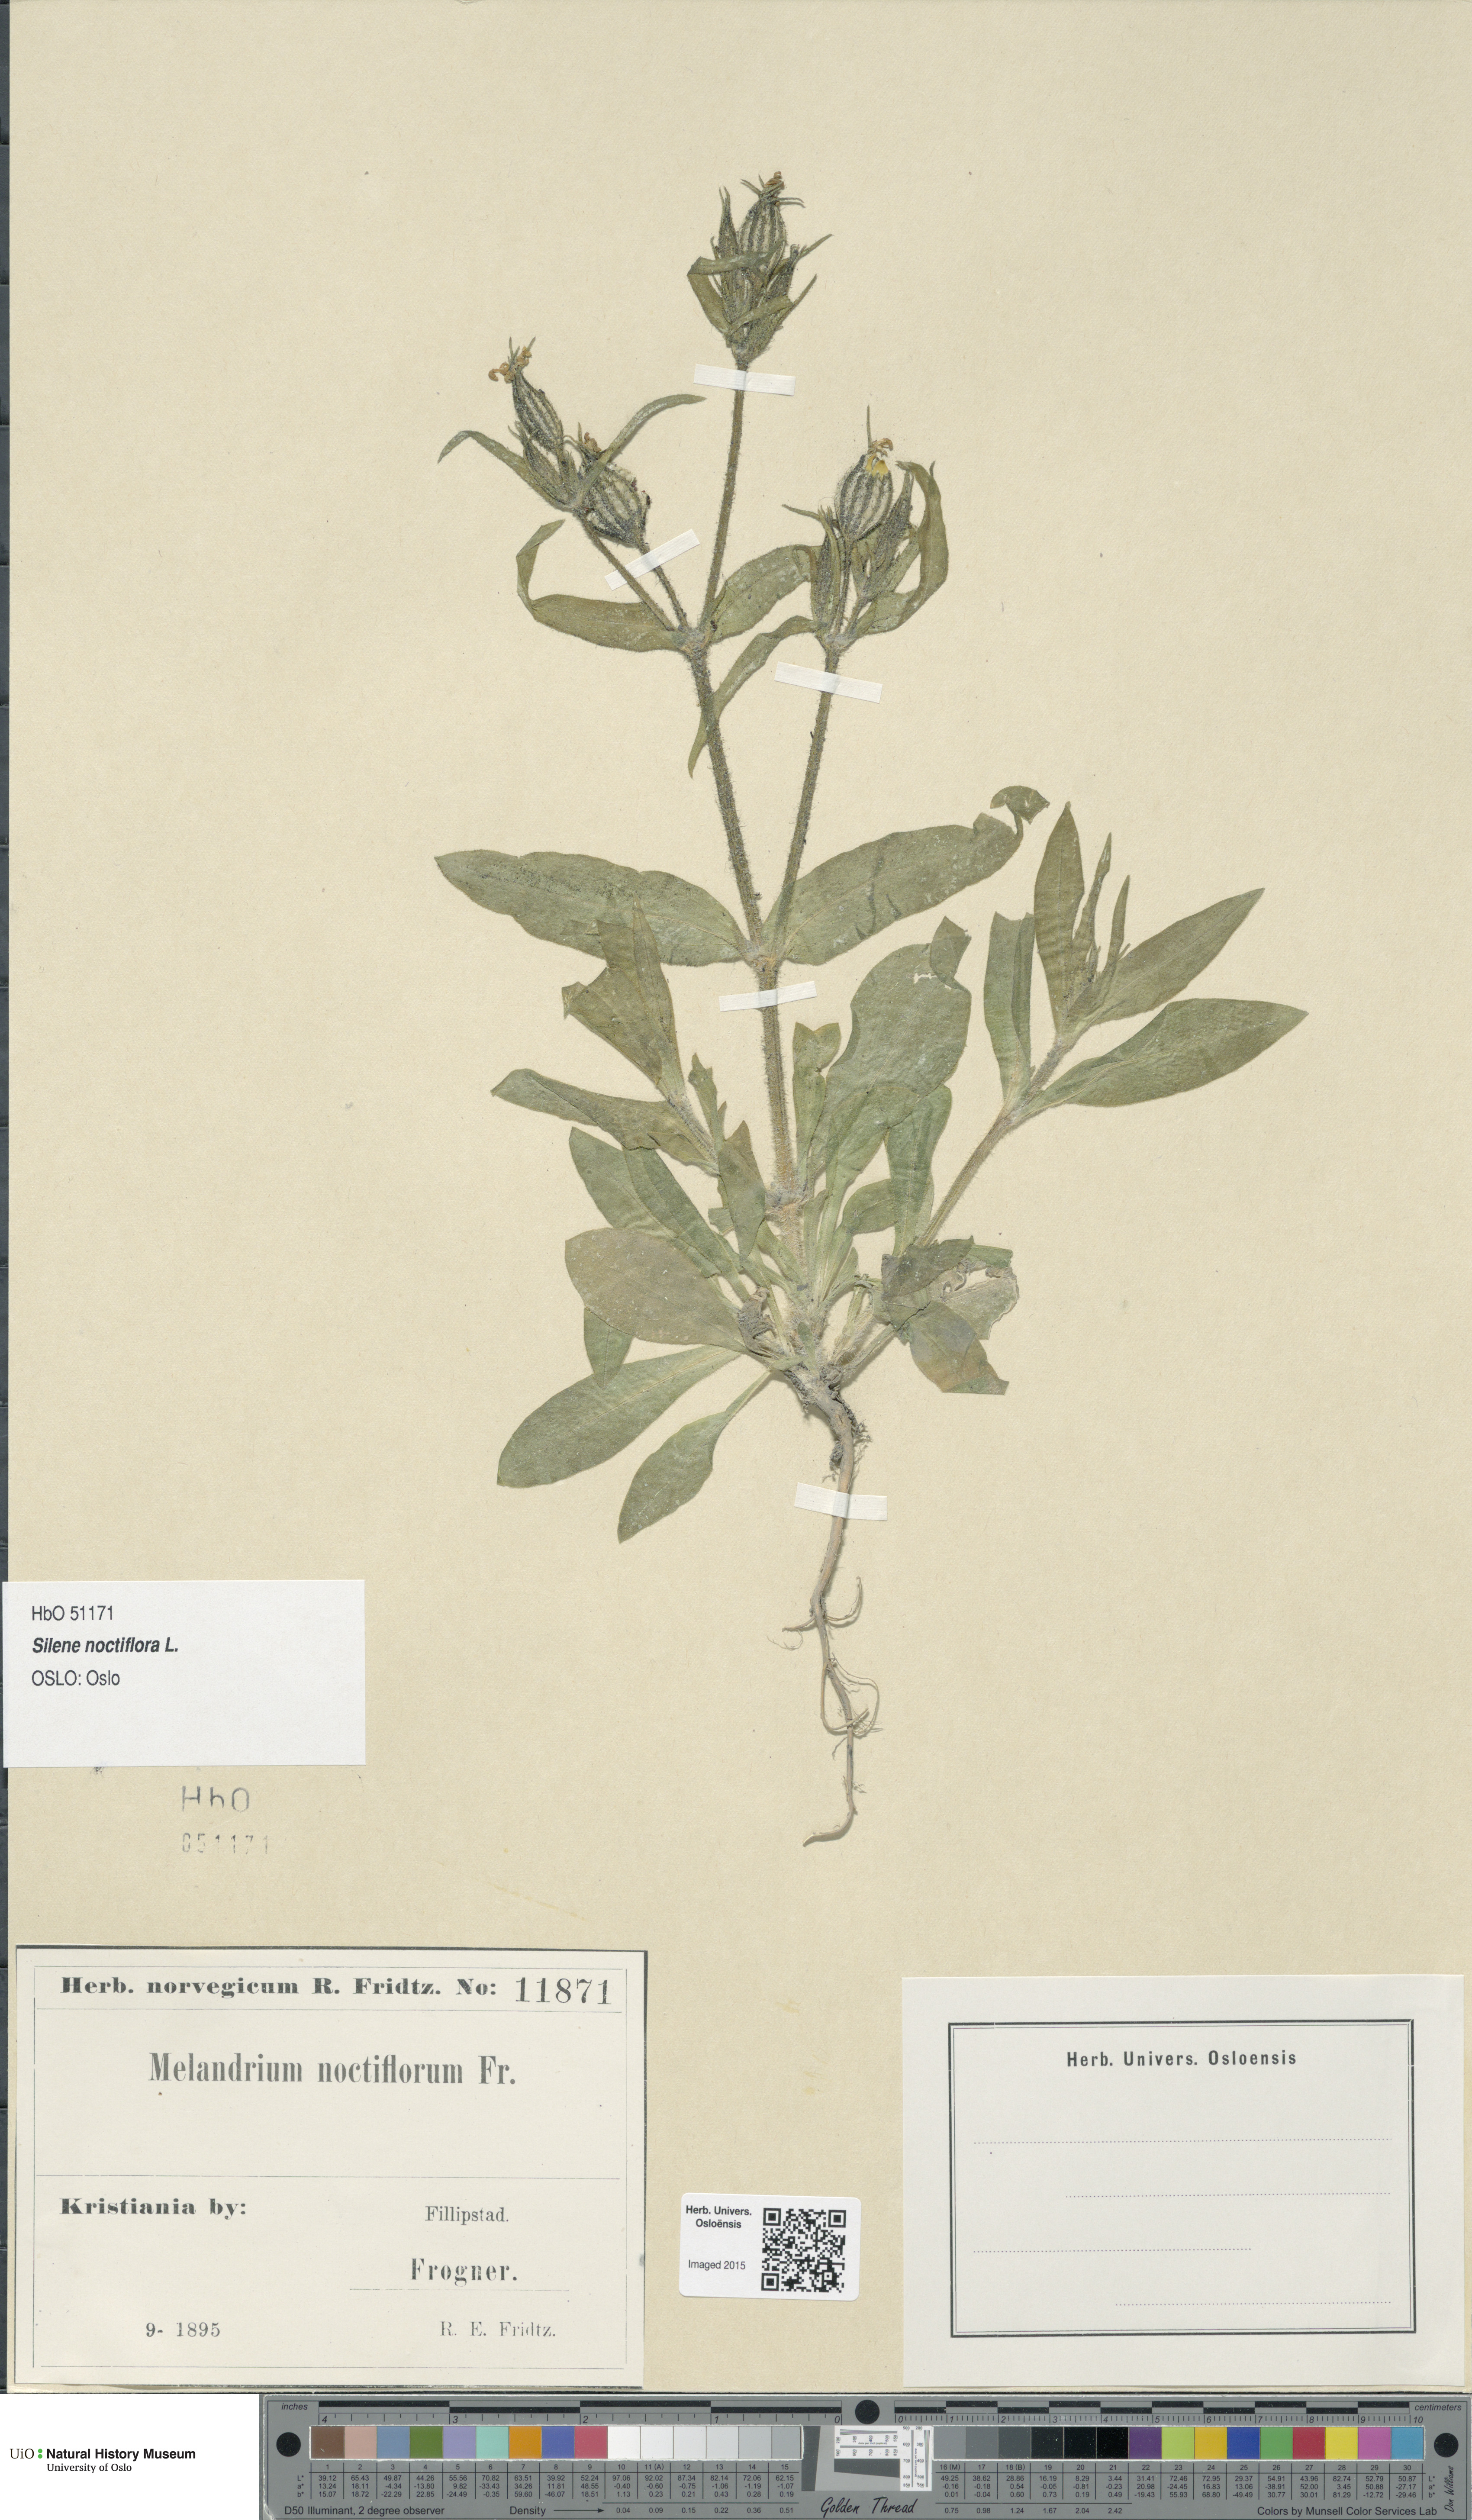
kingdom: Plantae
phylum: Tracheophyta
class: Magnoliopsida
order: Caryophyllales
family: Caryophyllaceae
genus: Silene
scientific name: Silene noctiflora
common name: Night-flowering catchfly
